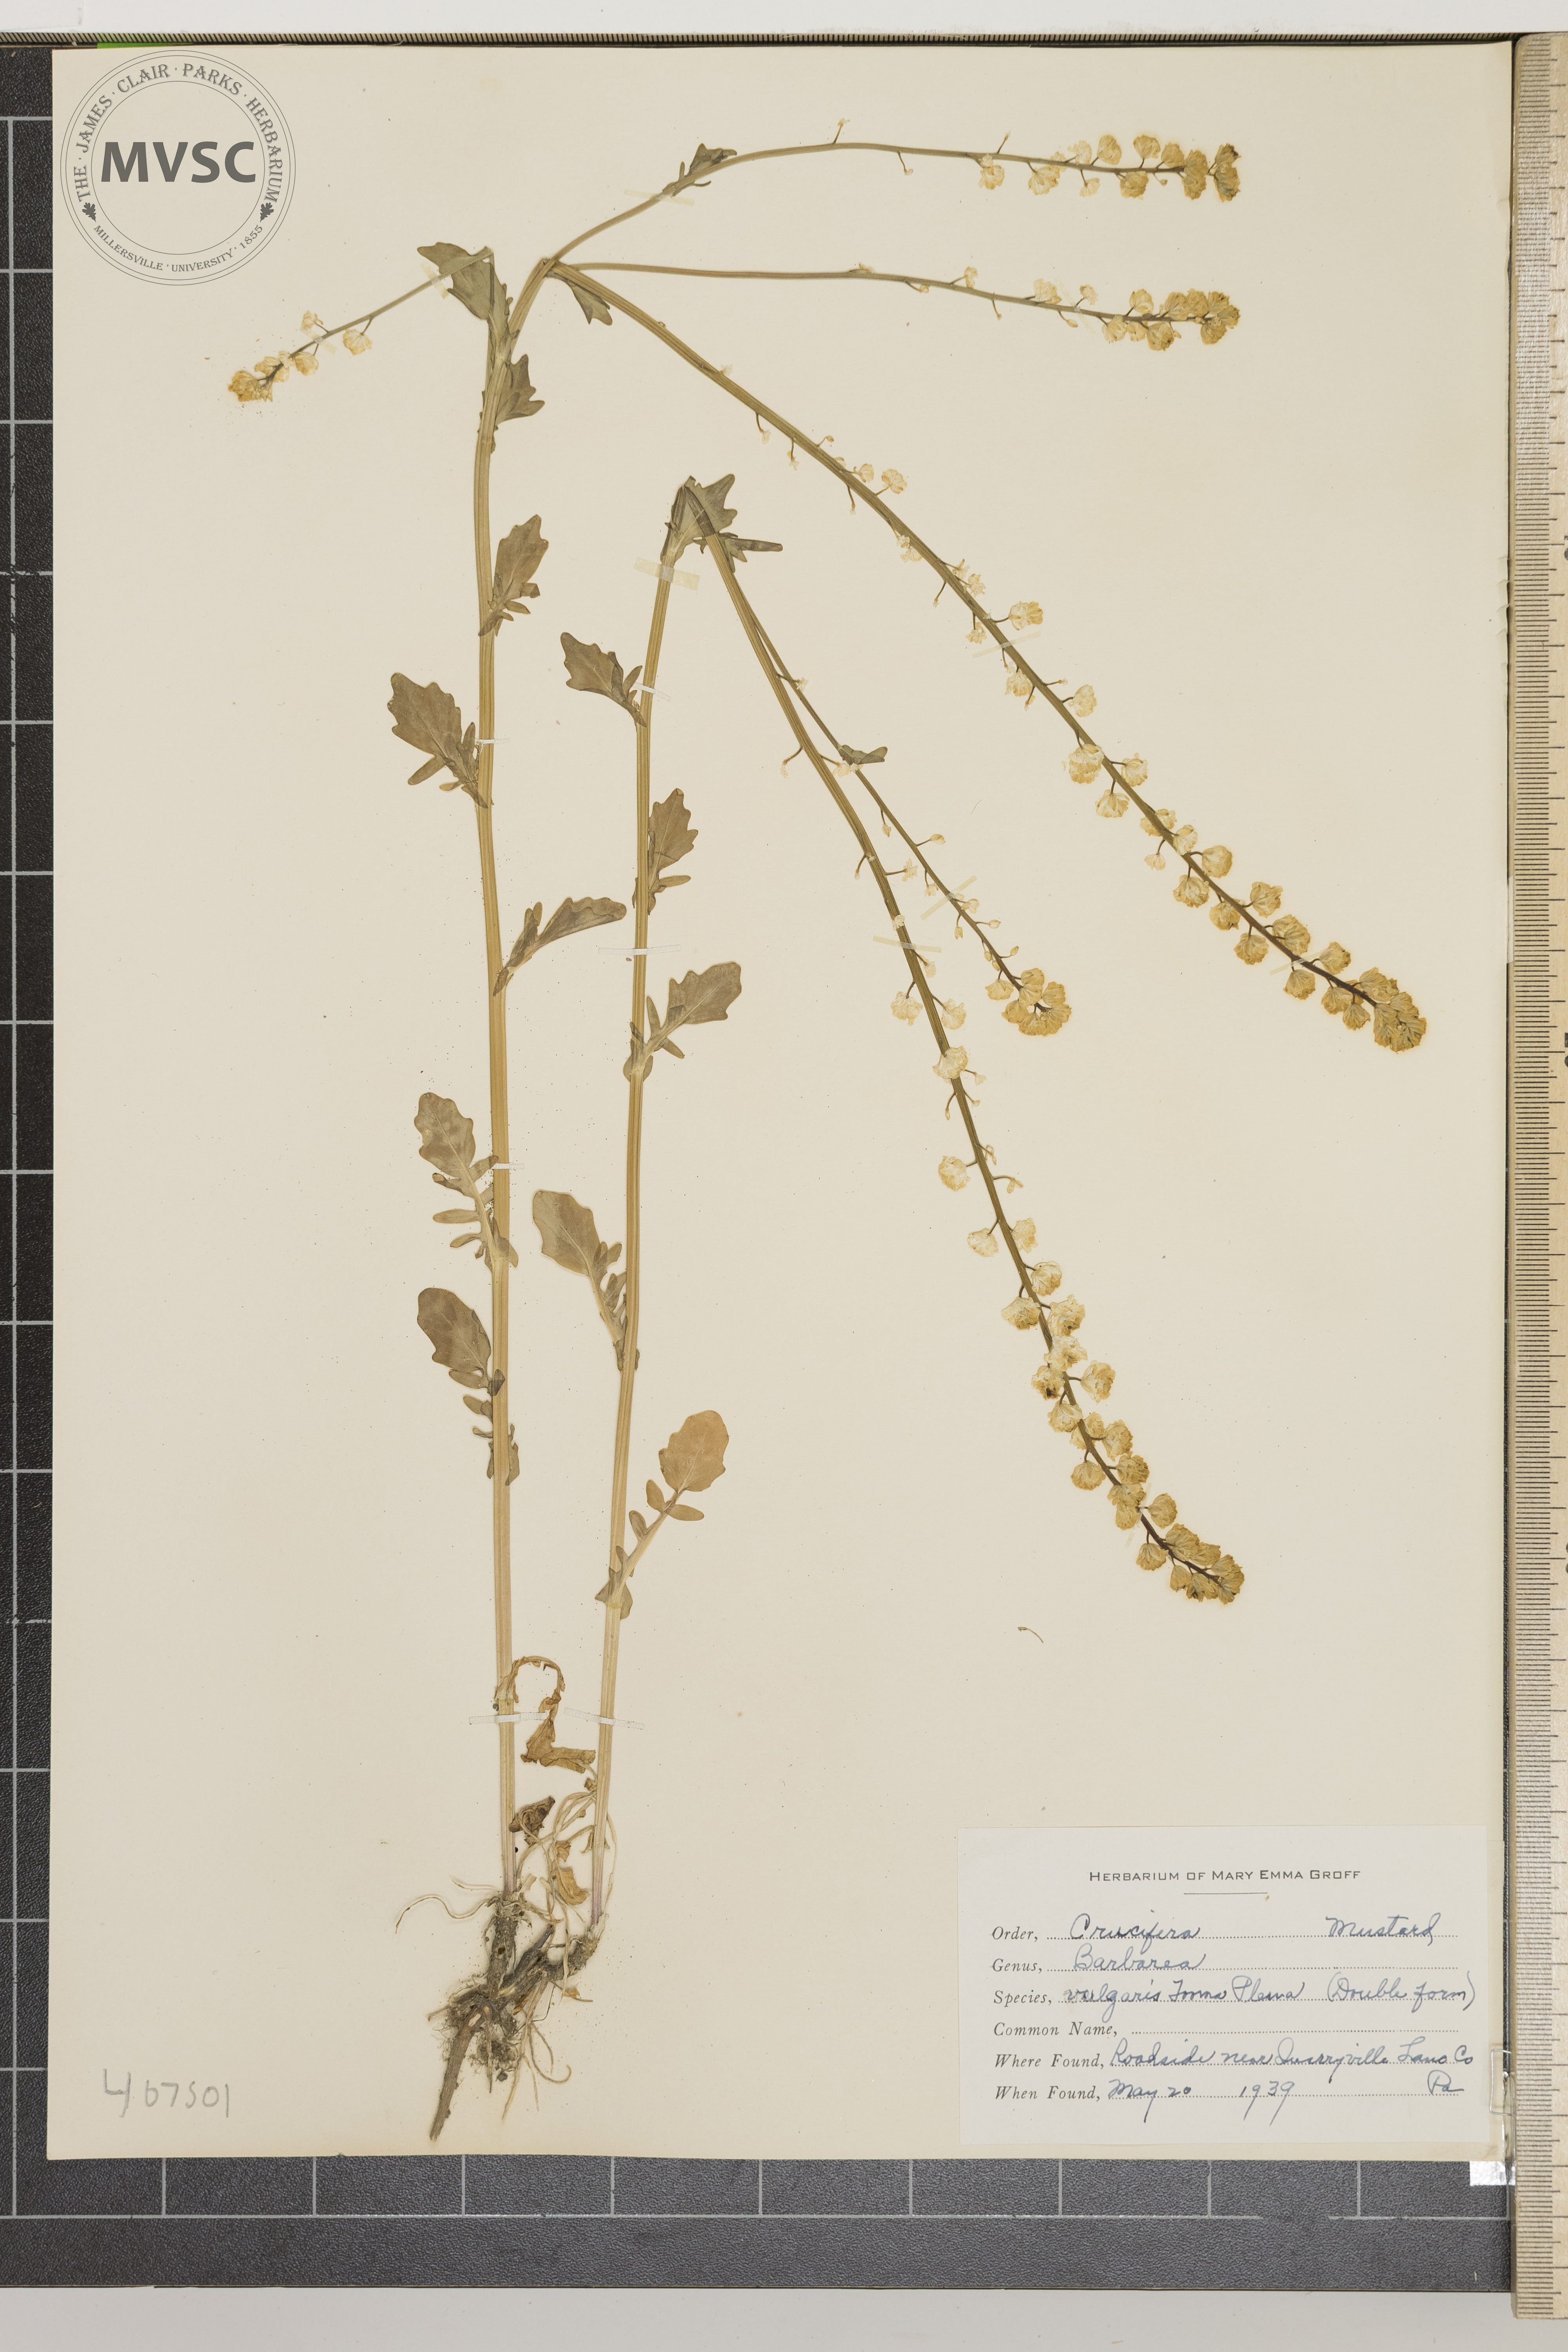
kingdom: Plantae
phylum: Tracheophyta
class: Magnoliopsida
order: Brassicales
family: Brassicaceae
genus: Barbarea
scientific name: Barbarea vulgaris
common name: Cressy-greens
